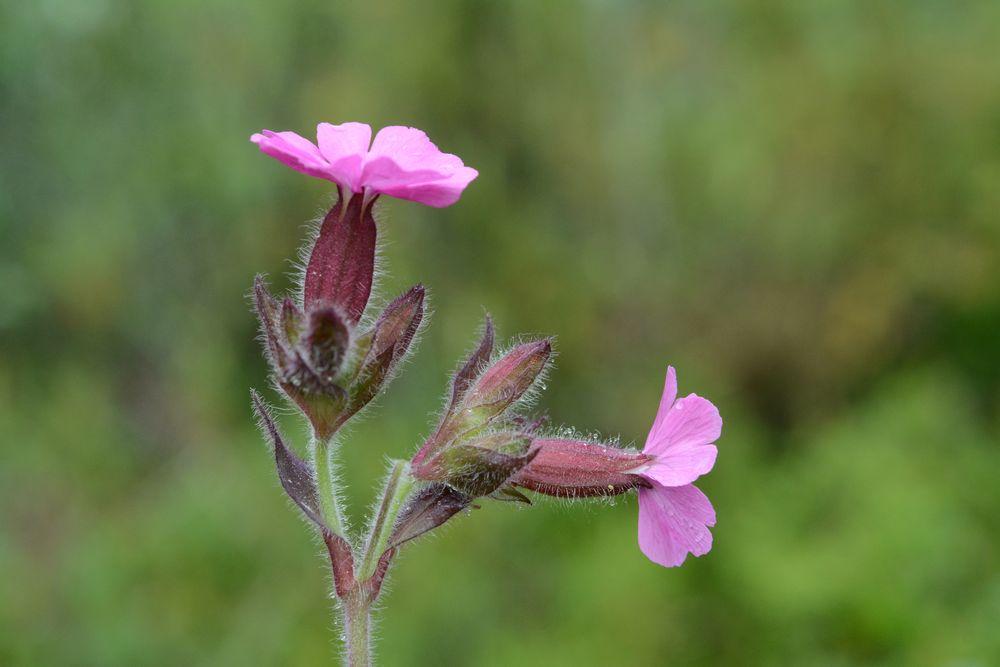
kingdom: Plantae
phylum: Tracheophyta
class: Magnoliopsida
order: Caryophyllales
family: Caryophyllaceae
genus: Silene
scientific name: Silene dioica
